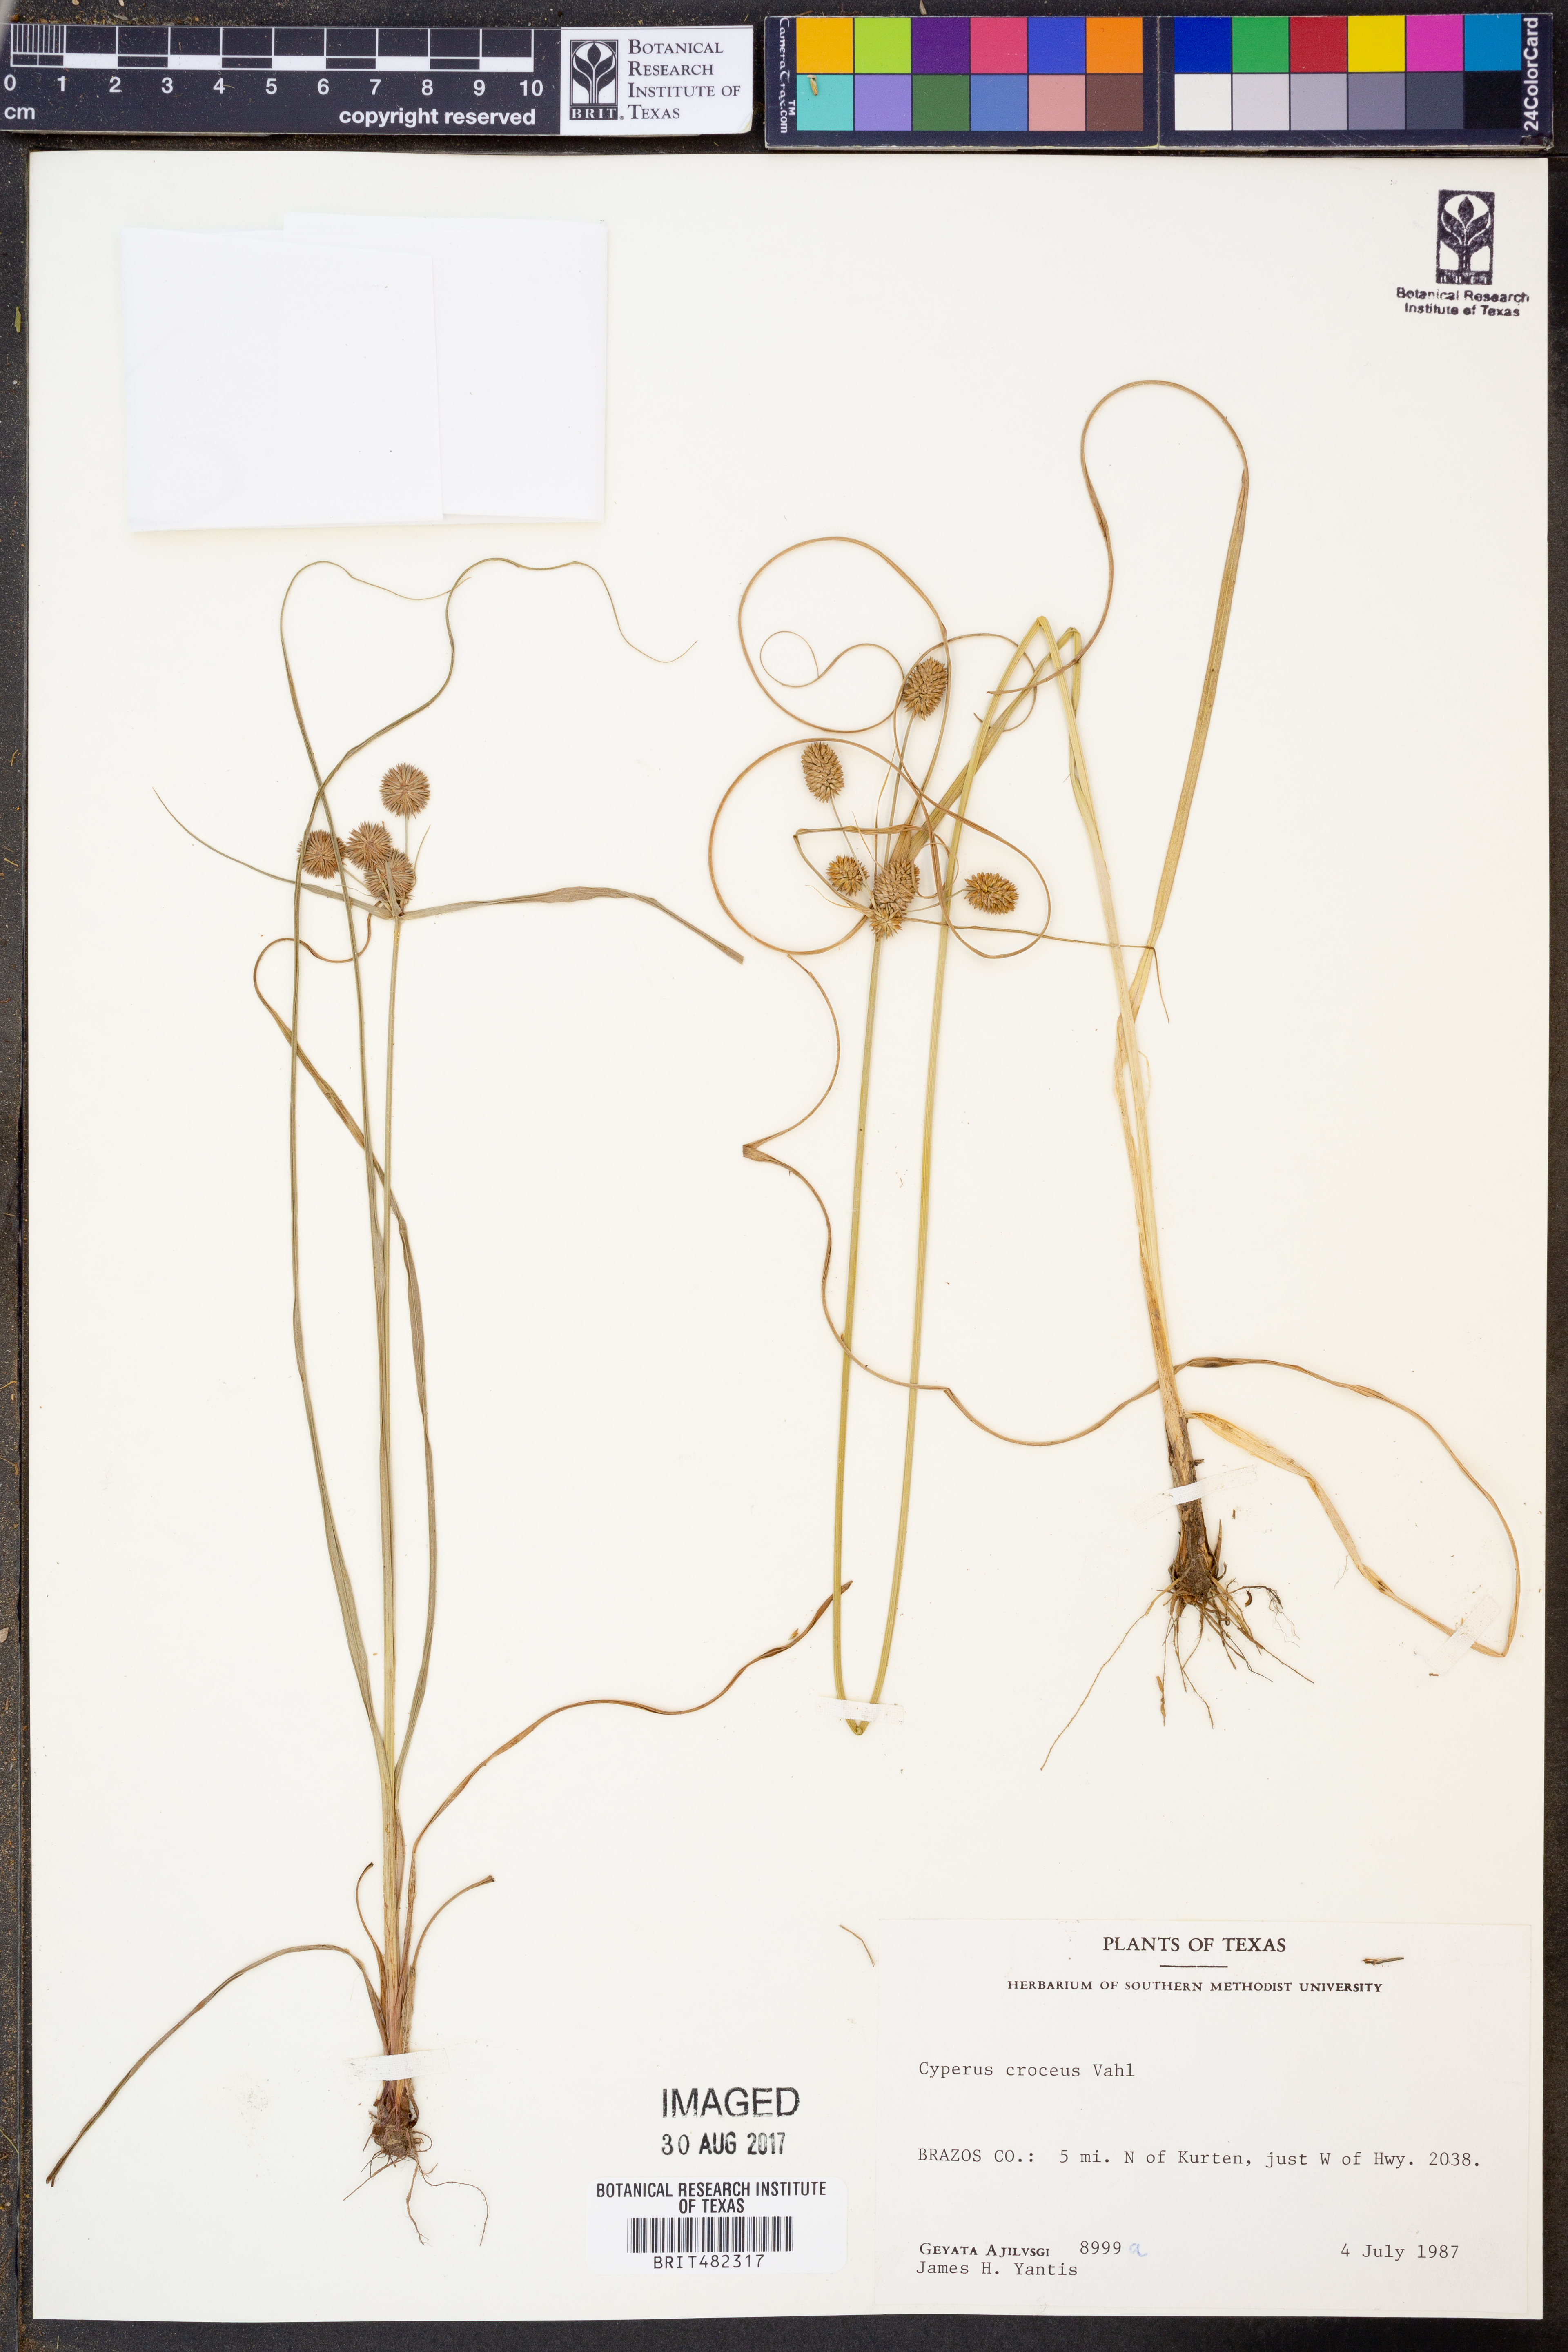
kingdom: Plantae
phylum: Tracheophyta
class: Liliopsida
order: Poales
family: Cyperaceae
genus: Cyperus
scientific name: Cyperus croceus
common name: Baldwin's flatsedge
